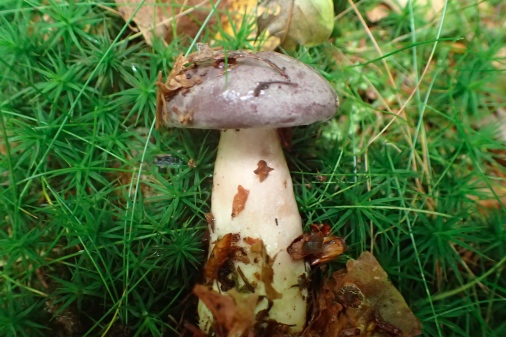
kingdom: Fungi
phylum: Basidiomycota
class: Agaricomycetes
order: Russulales
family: Russulaceae
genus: Lactarius
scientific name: Lactarius trivialis
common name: nordisk mælkehat
